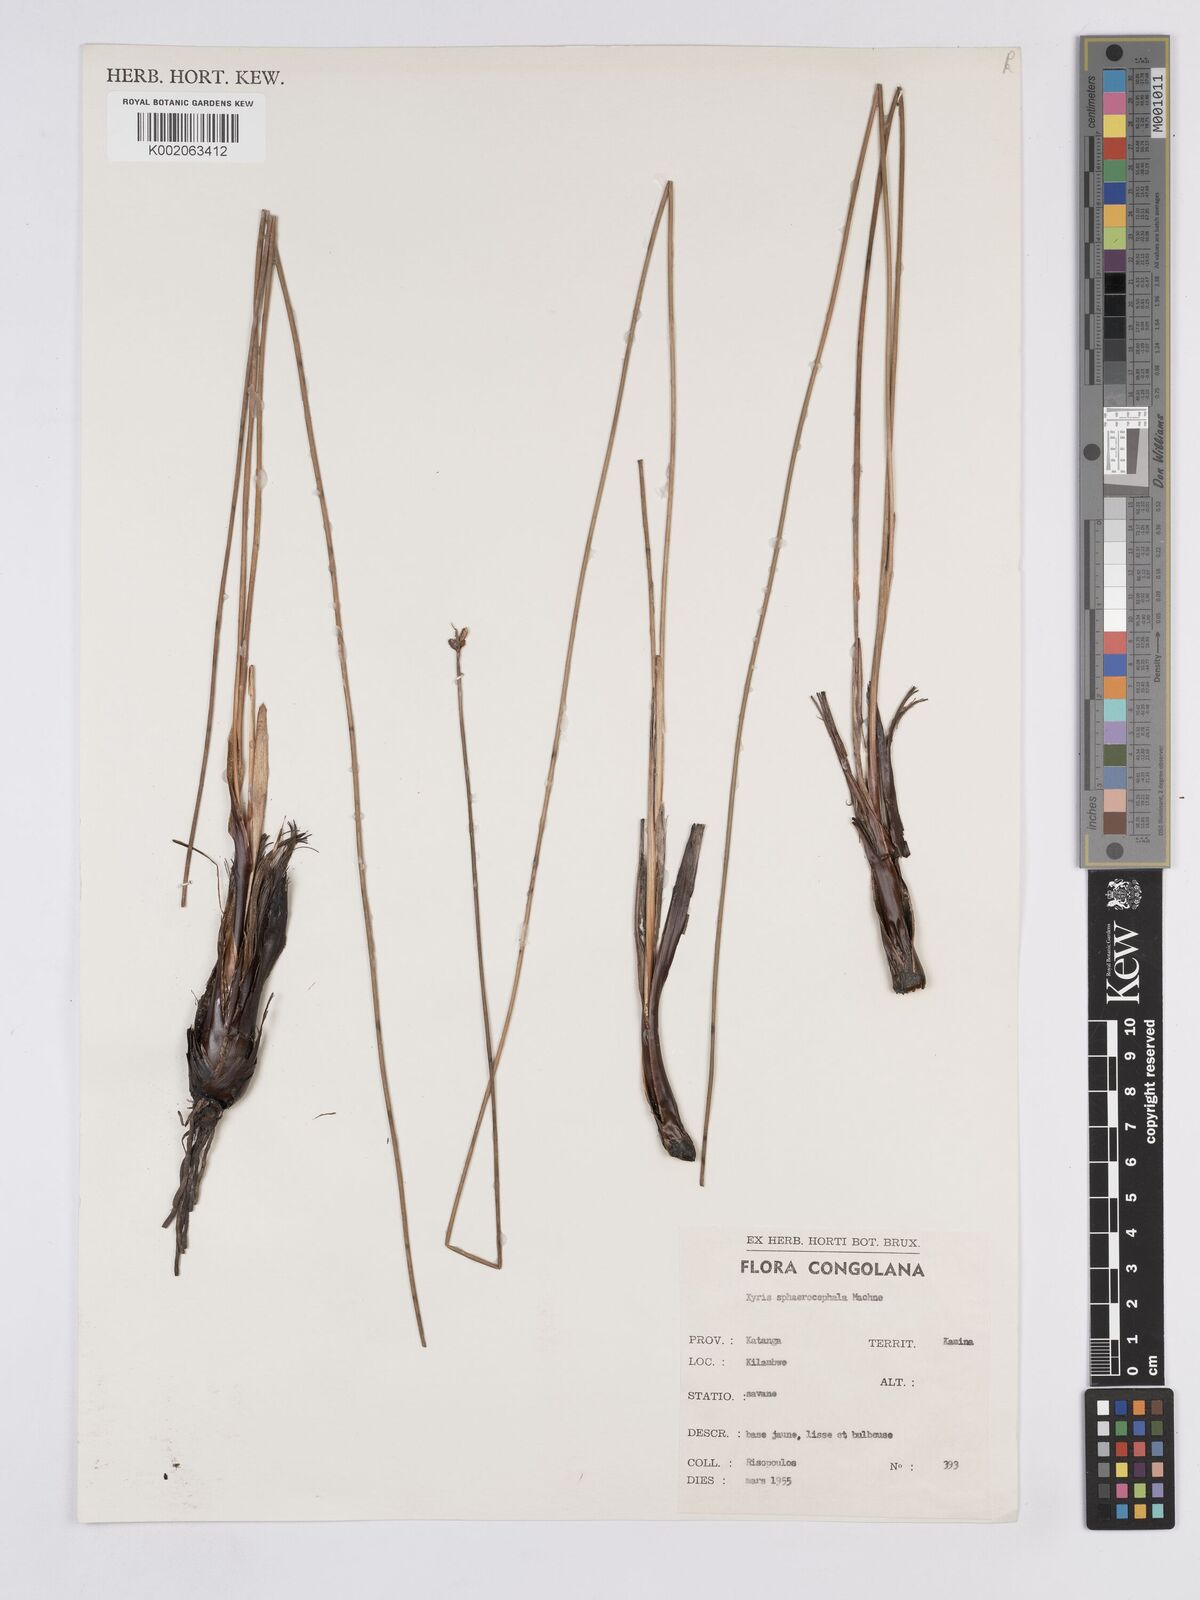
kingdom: Plantae
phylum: Tracheophyta
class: Liliopsida
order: Poales
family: Xyridaceae
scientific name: Xyridaceae
